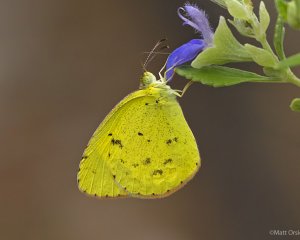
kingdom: Animalia
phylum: Arthropoda
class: Insecta
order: Lepidoptera
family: Pieridae
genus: Pyrisitia
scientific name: Pyrisitia lisa
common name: Little Yellow
